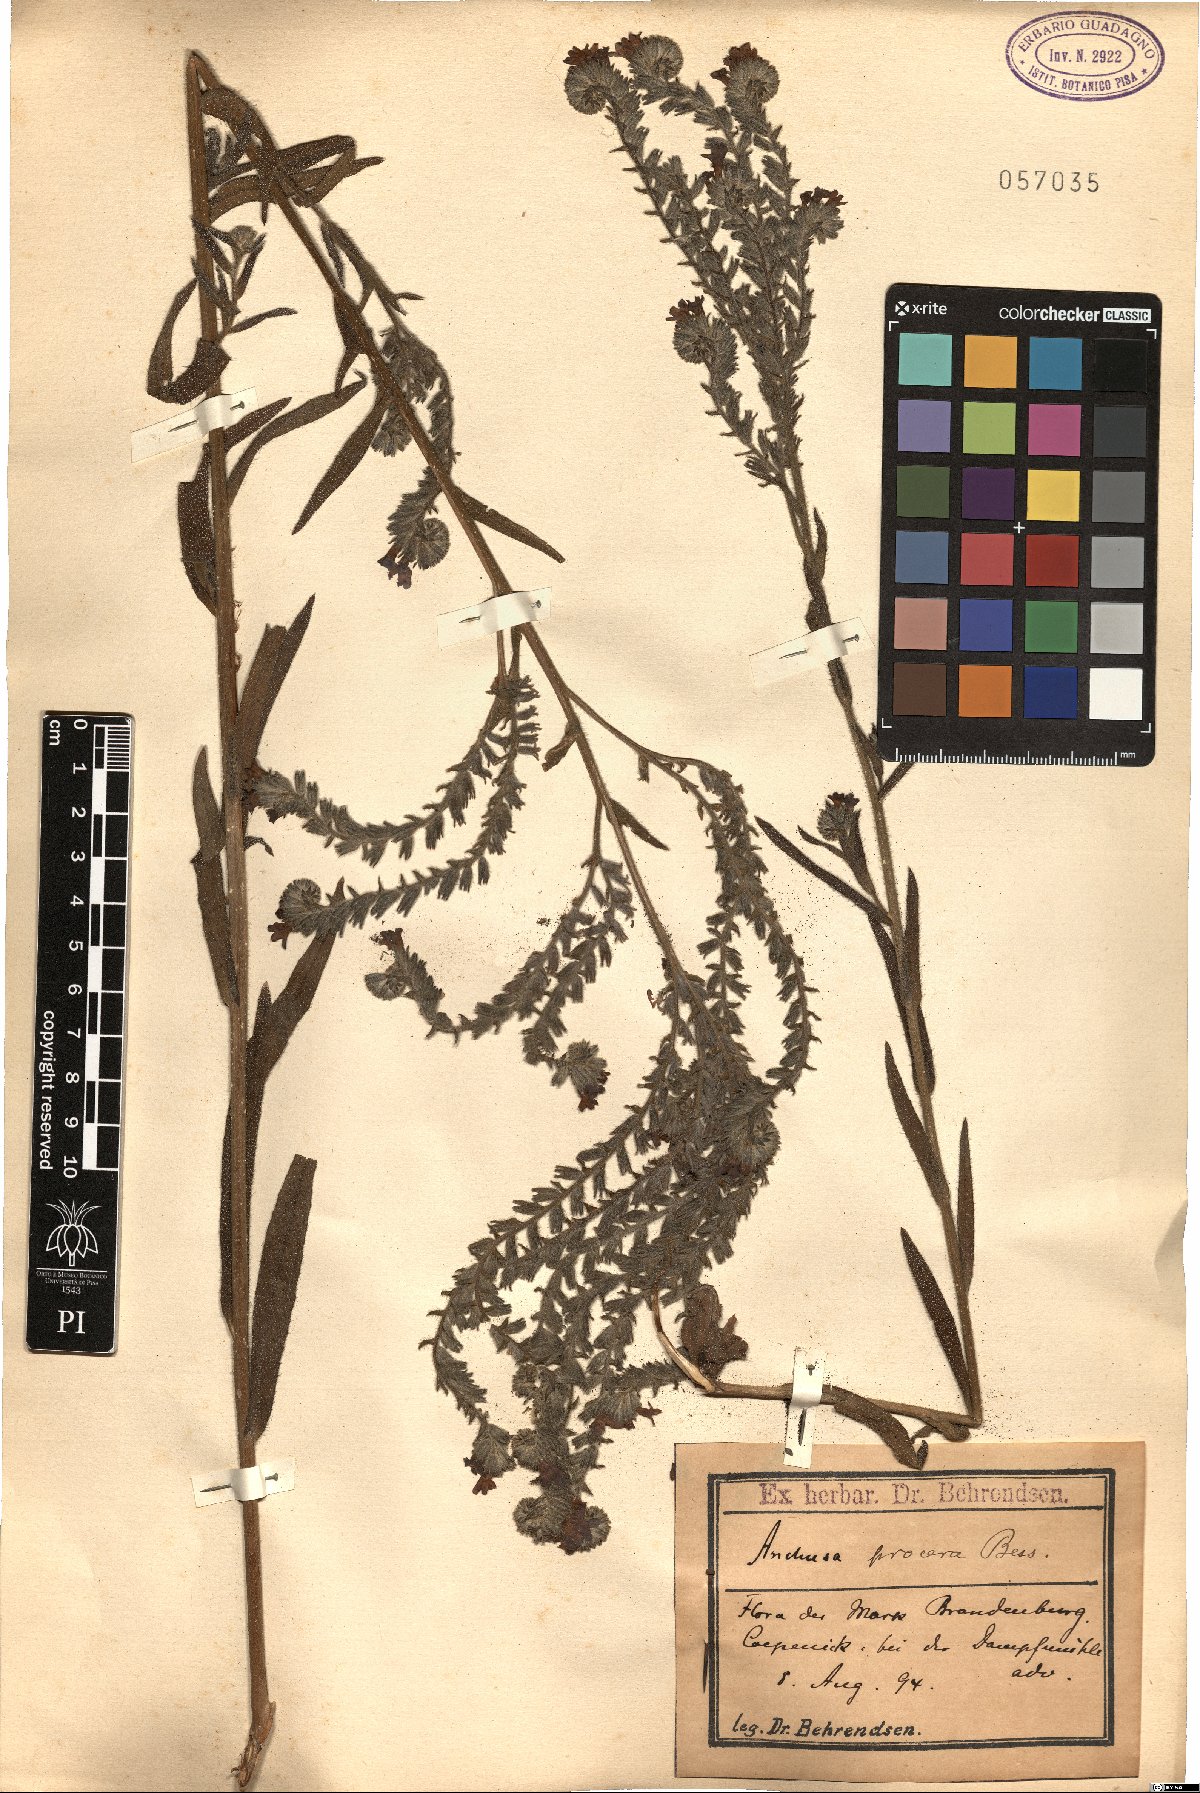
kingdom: Plantae
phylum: Tracheophyta
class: Magnoliopsida
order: Boraginales
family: Boraginaceae
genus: Anchusa
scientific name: Anchusa procera
